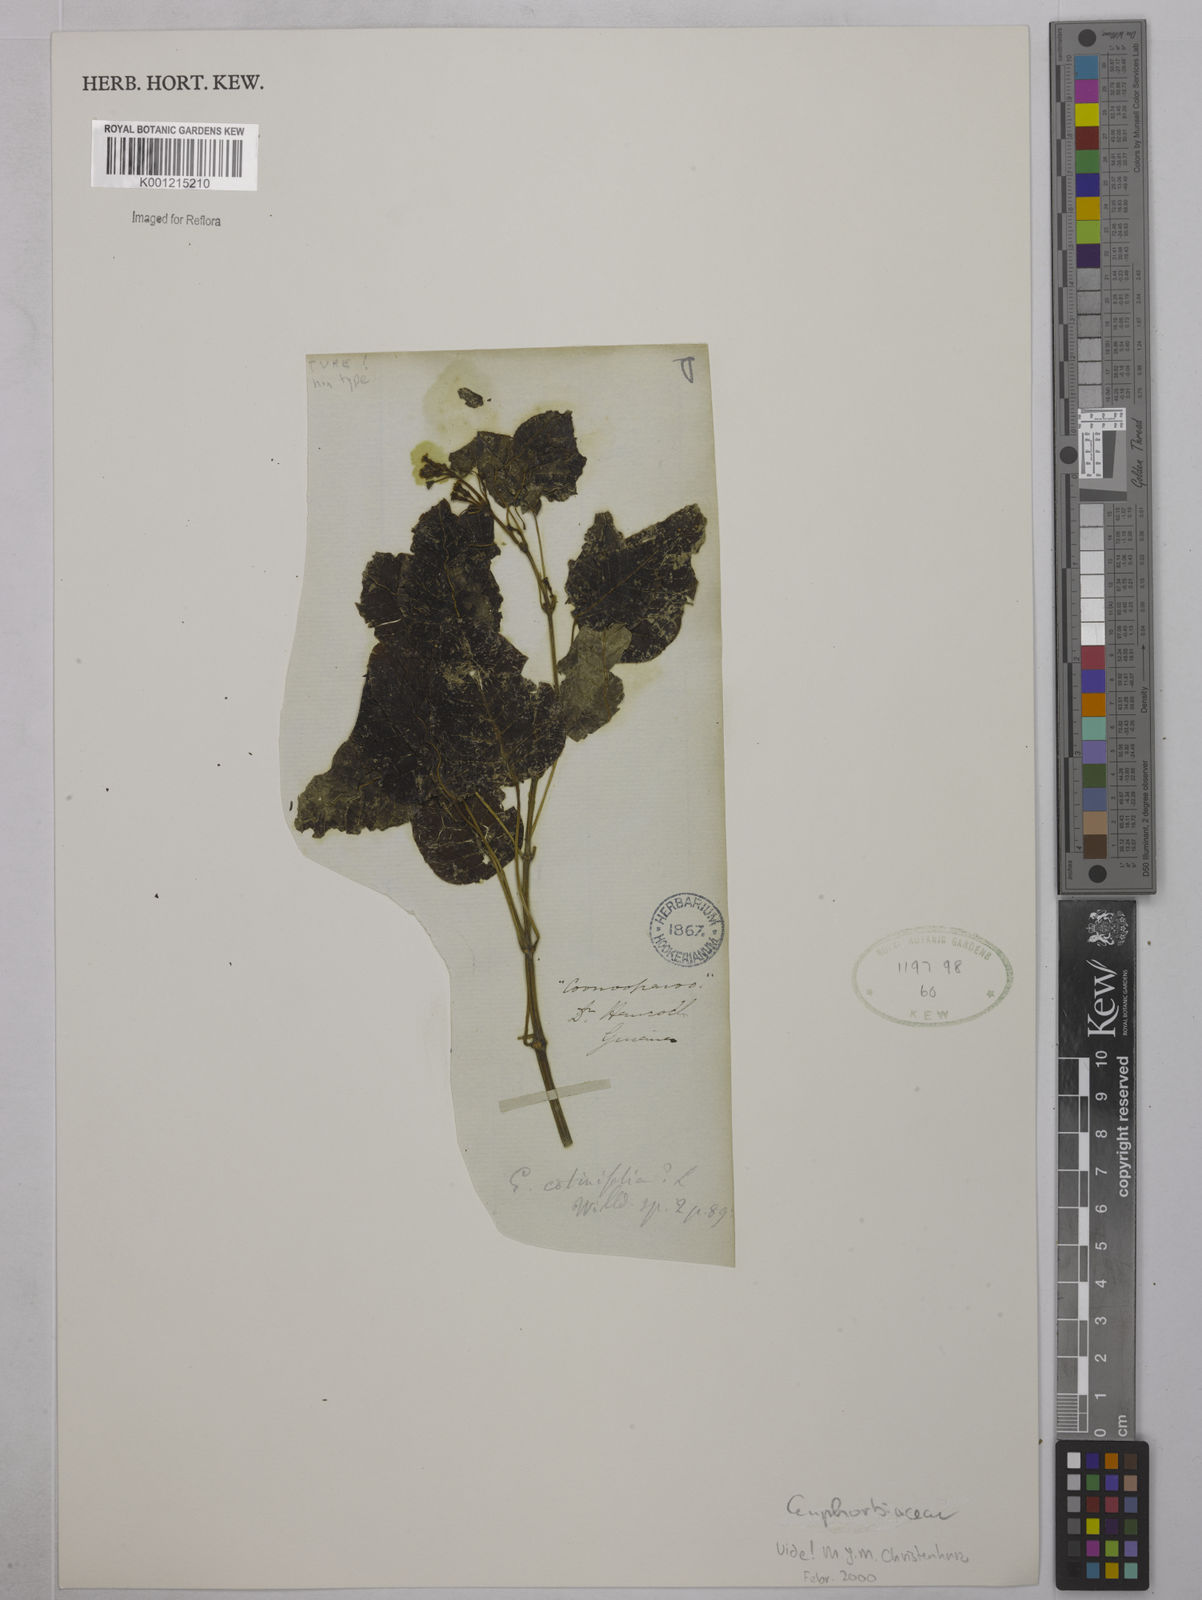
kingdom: Plantae
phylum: Tracheophyta
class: Magnoliopsida
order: Malpighiales
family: Euphorbiaceae
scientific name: Euphorbiaceae
